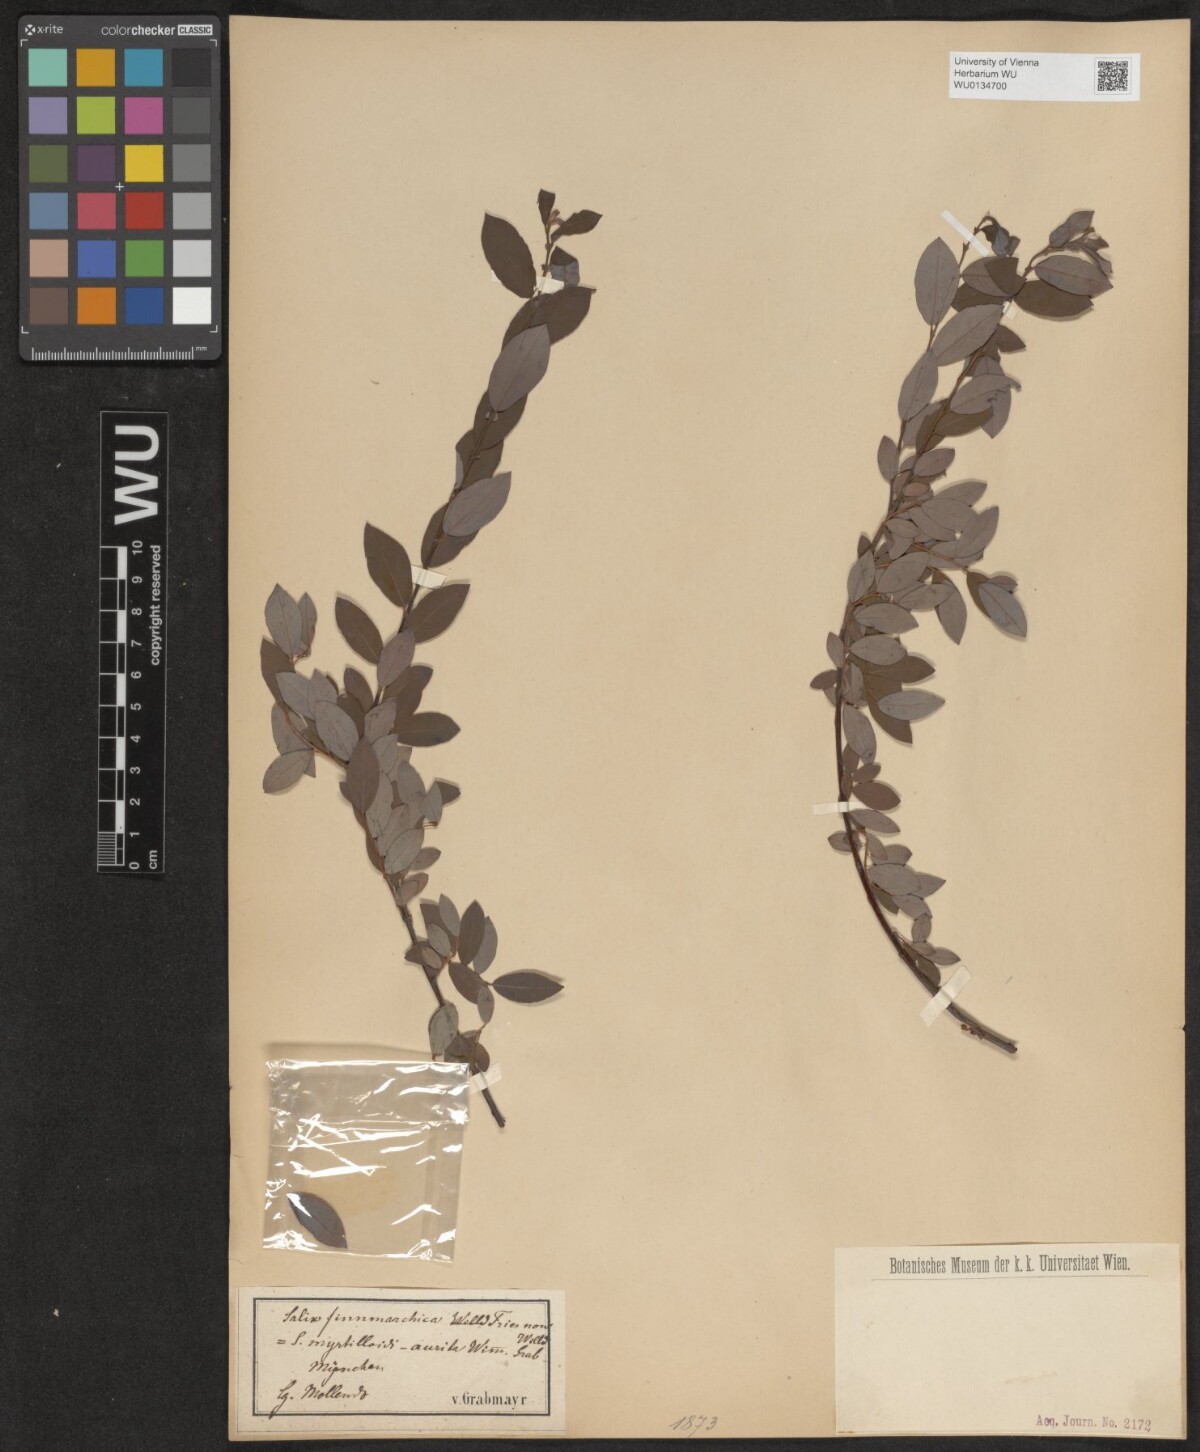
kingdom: Plantae
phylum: Tracheophyta
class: Magnoliopsida
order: Malpighiales
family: Salicaceae
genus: Salix
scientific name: Salix
